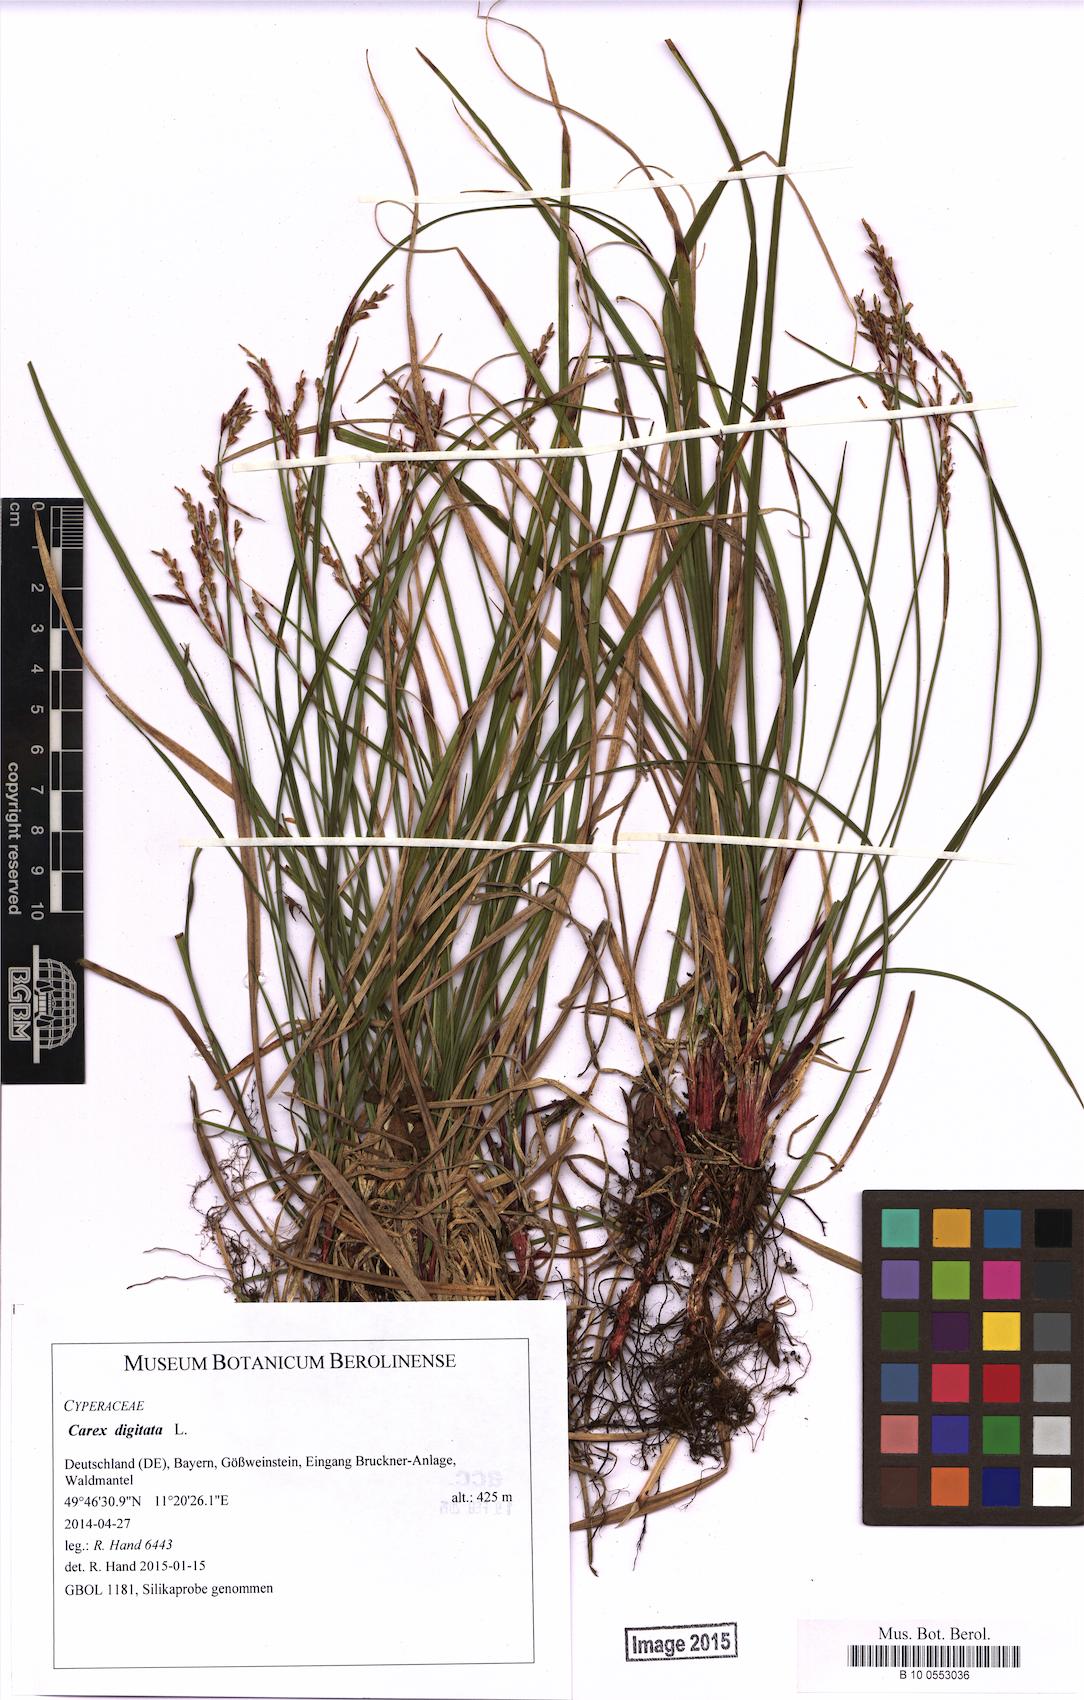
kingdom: Plantae
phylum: Tracheophyta
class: Liliopsida
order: Poales
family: Cyperaceae
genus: Carex
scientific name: Carex digitata
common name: Fingered sedge
